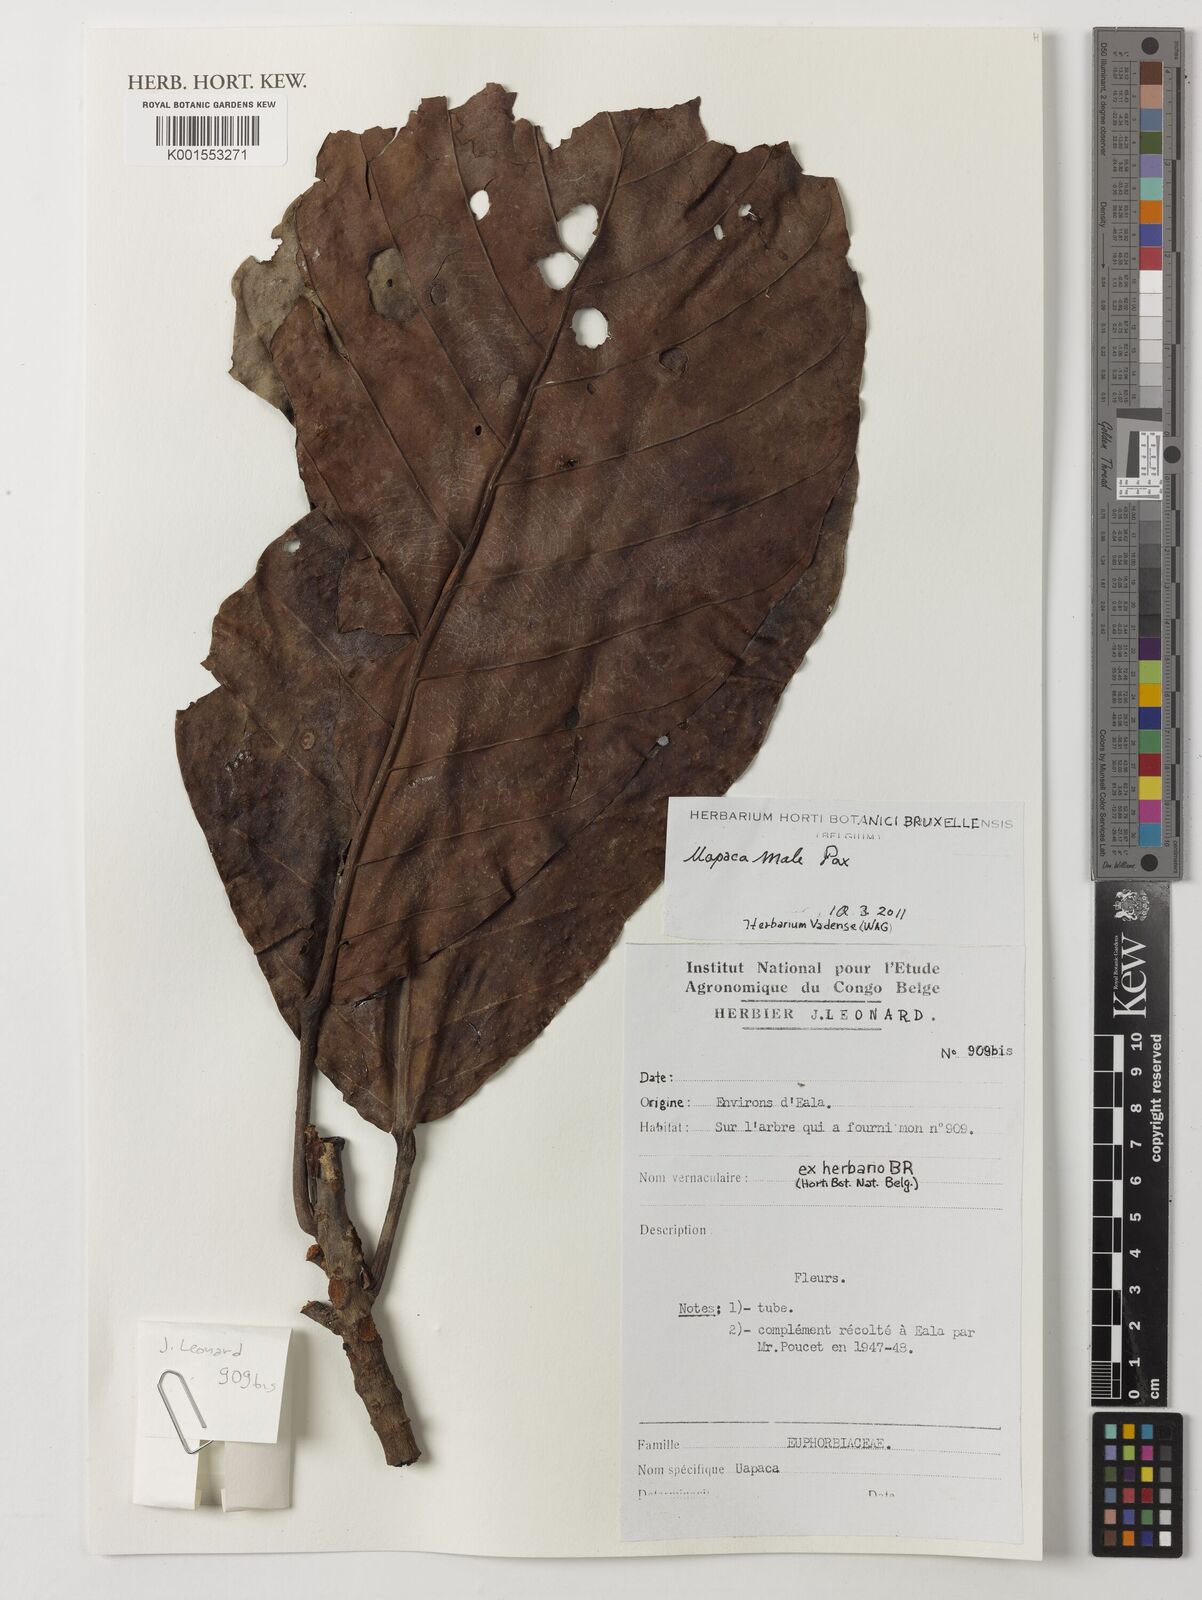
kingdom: Plantae
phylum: Tracheophyta
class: Magnoliopsida
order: Malpighiales
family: Phyllanthaceae
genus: Uapaca
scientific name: Uapaca mole
